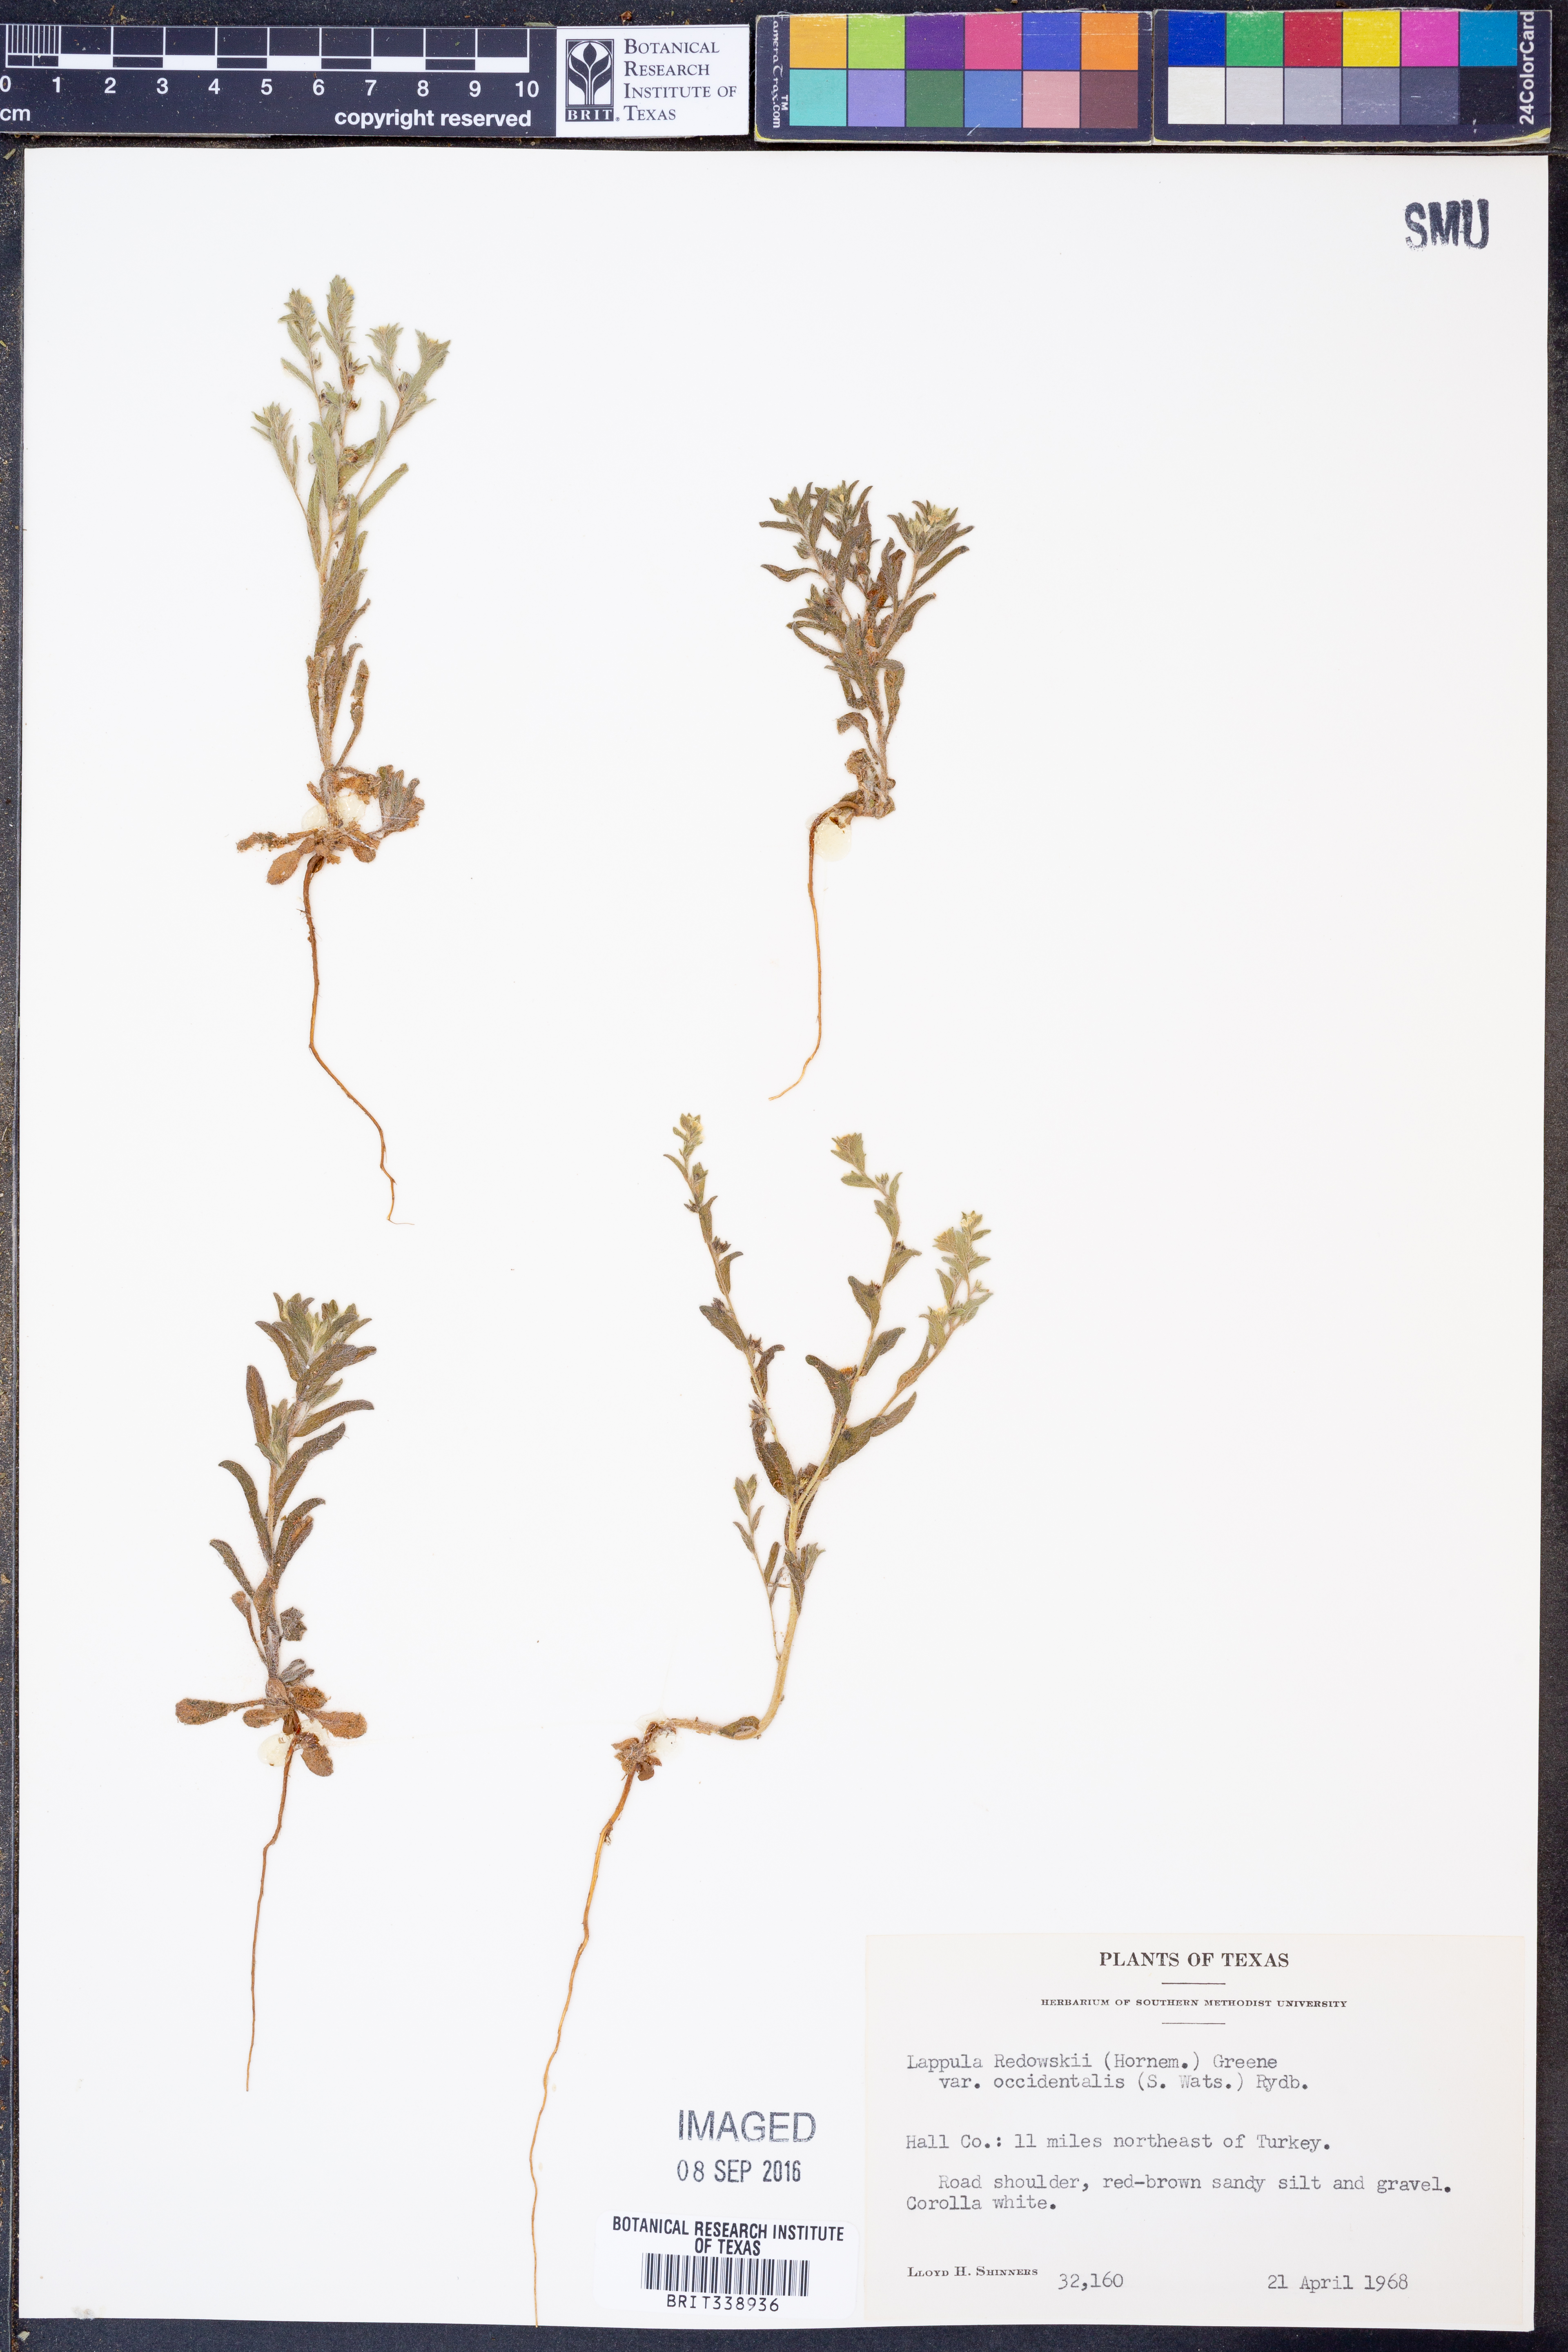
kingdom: Plantae
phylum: Tracheophyta
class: Magnoliopsida
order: Boraginales
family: Boraginaceae
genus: Lappula
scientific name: Lappula occidentalis
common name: Western stickseed
